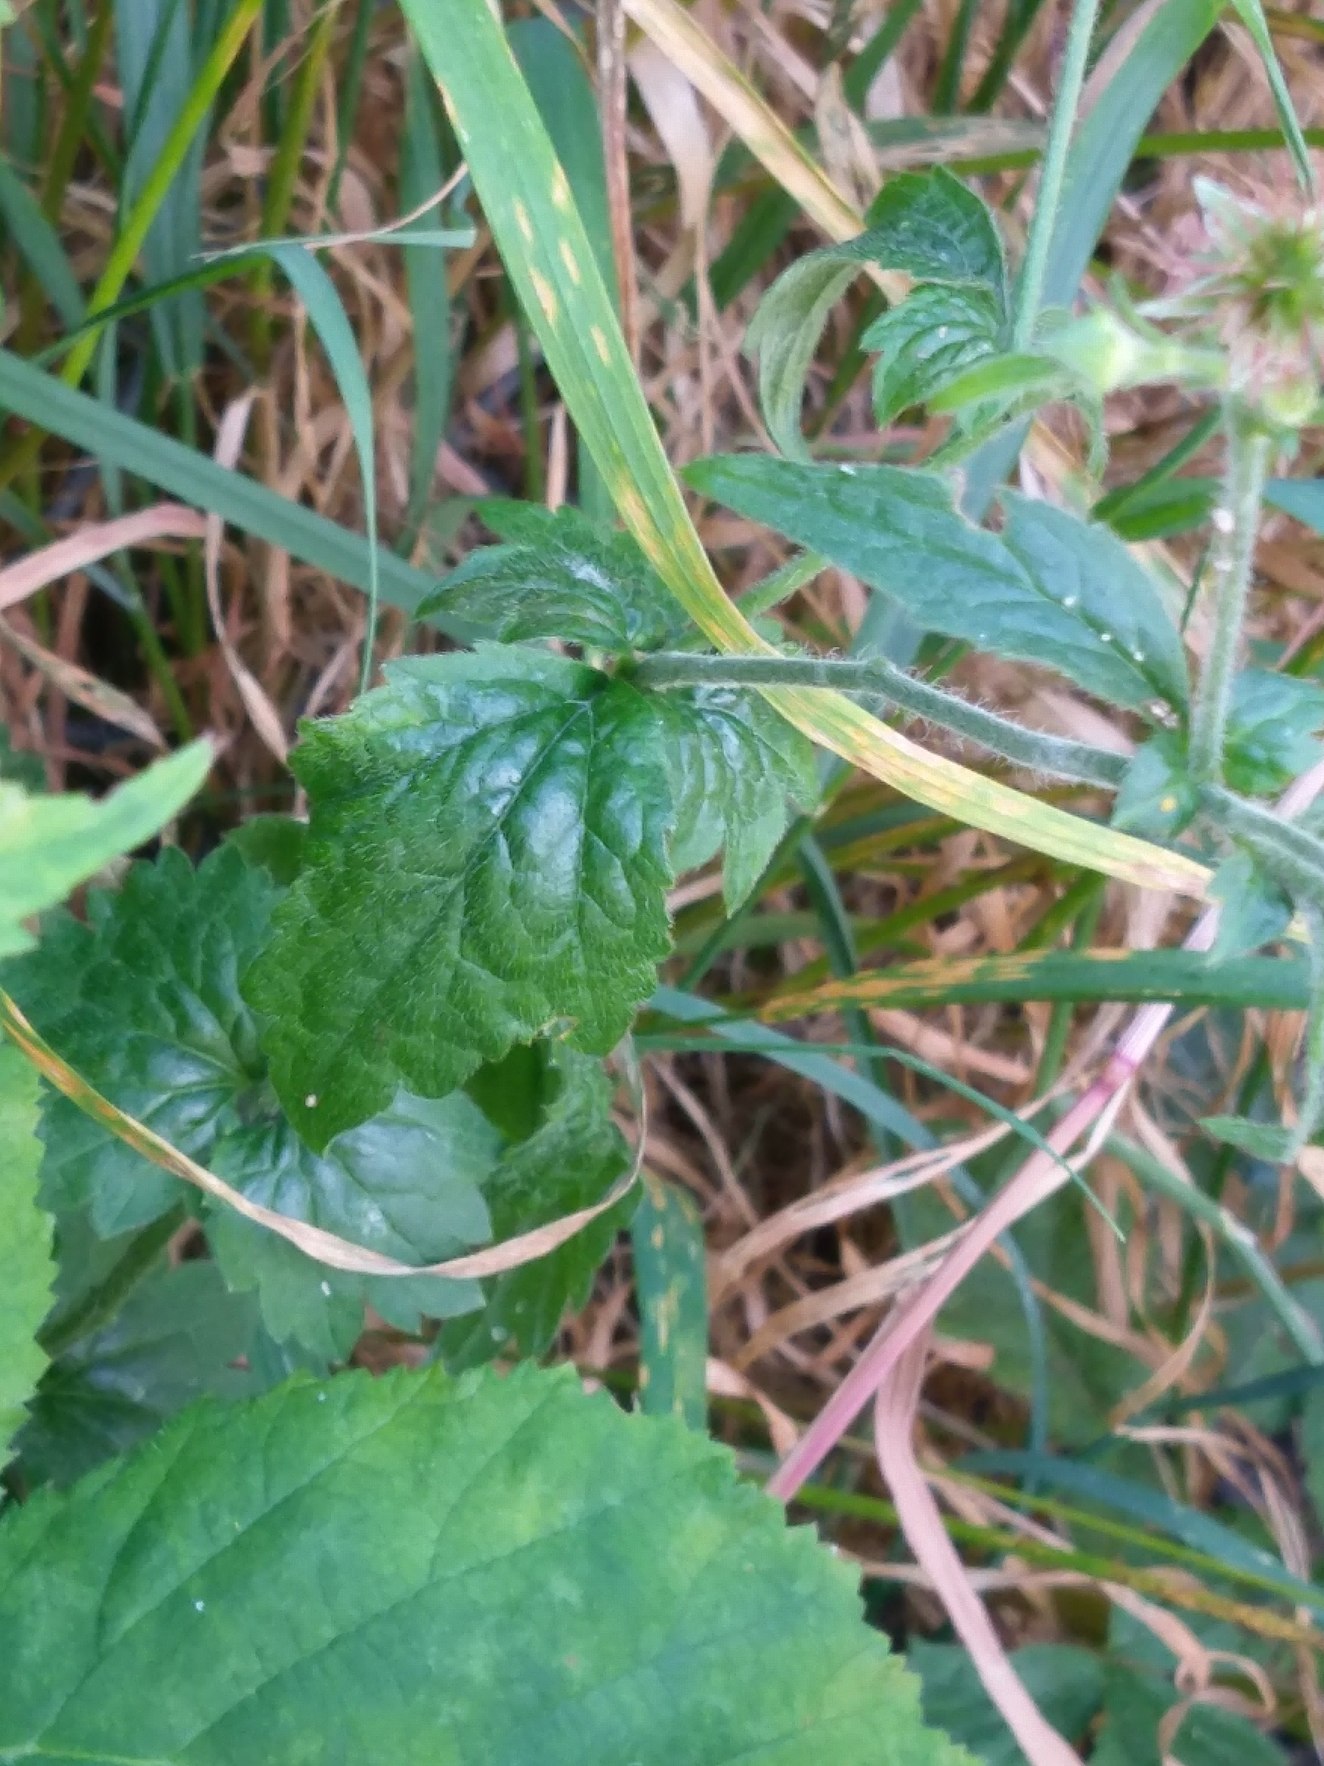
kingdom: Plantae
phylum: Tracheophyta
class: Magnoliopsida
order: Rosales
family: Rosaceae
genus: Geum
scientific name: Geum urbanum
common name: Feber-nellikerod
